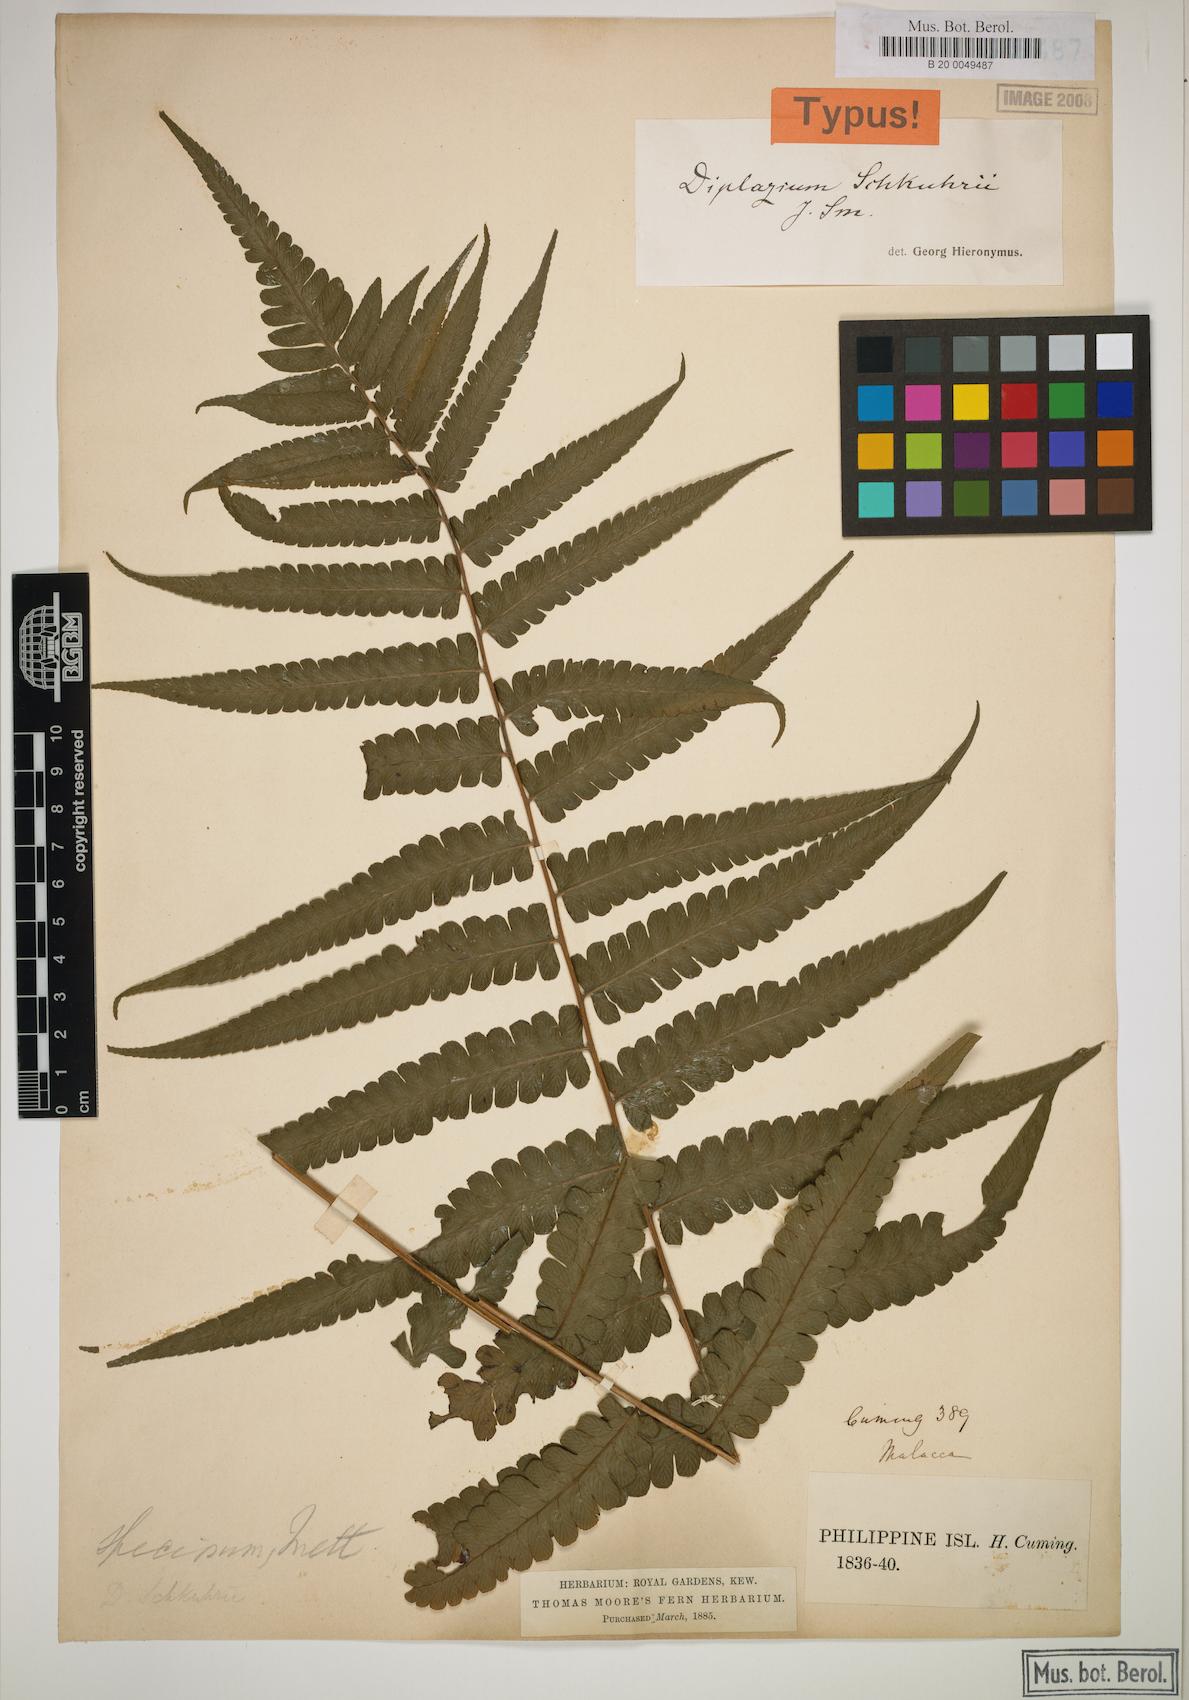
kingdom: Plantae
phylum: Tracheophyta
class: Polypodiopsida
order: Polypodiales
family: Athyriaceae
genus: Diplazium
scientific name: Diplazium schkuhrii
